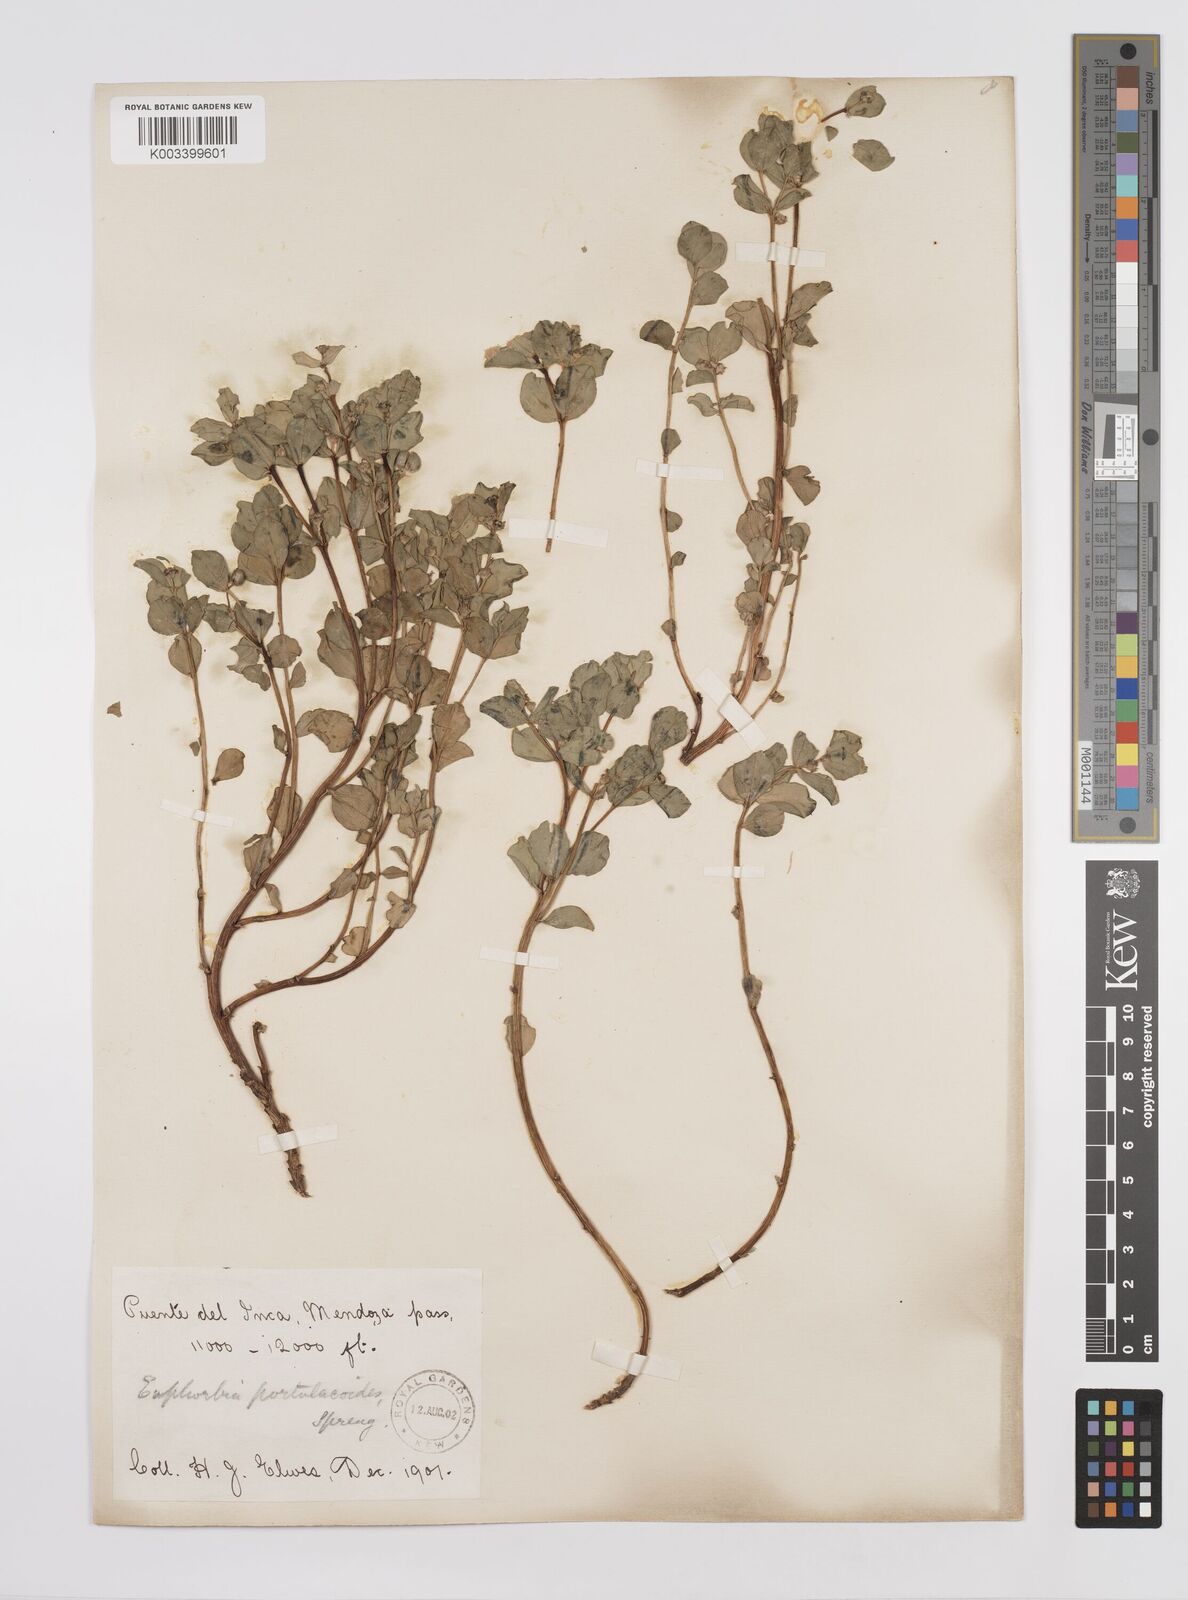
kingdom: Plantae
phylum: Tracheophyta
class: Magnoliopsida
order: Malpighiales
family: Euphorbiaceae
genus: Euphorbia
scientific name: Euphorbia portulacoides
